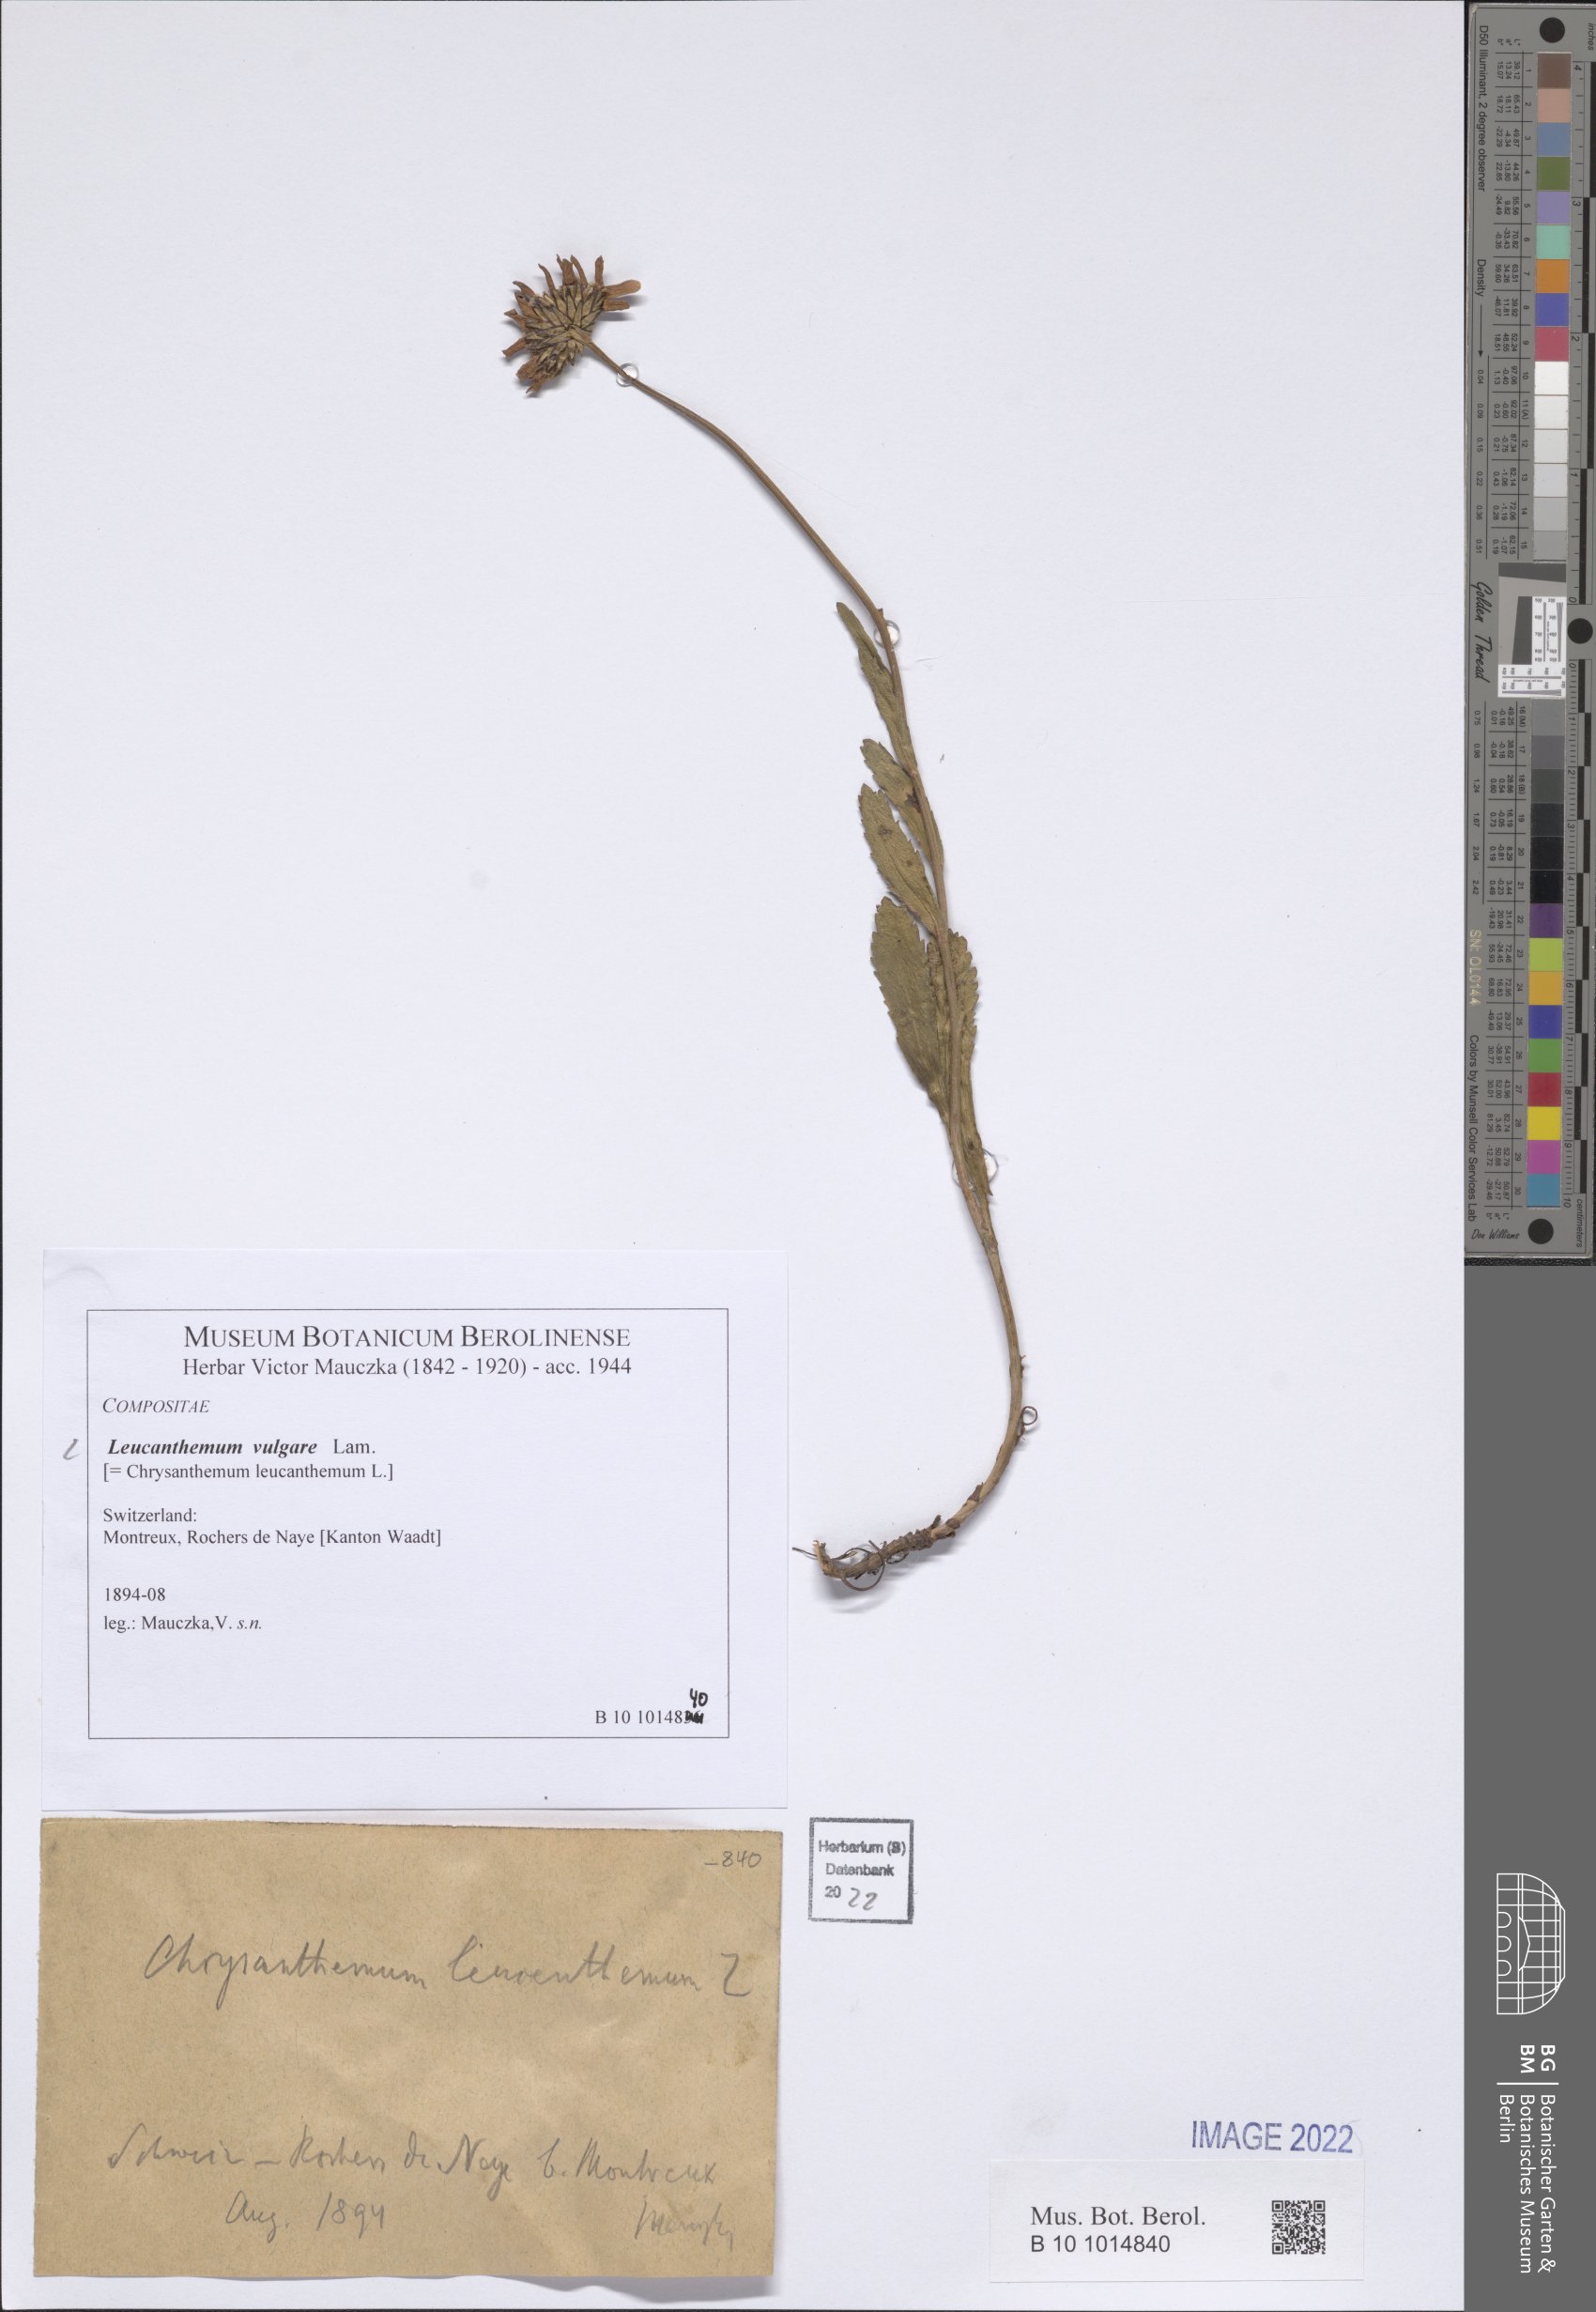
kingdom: Plantae
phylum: Tracheophyta
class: Magnoliopsida
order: Asterales
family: Asteraceae
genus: Leucanthemum
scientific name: Leucanthemum adustum
